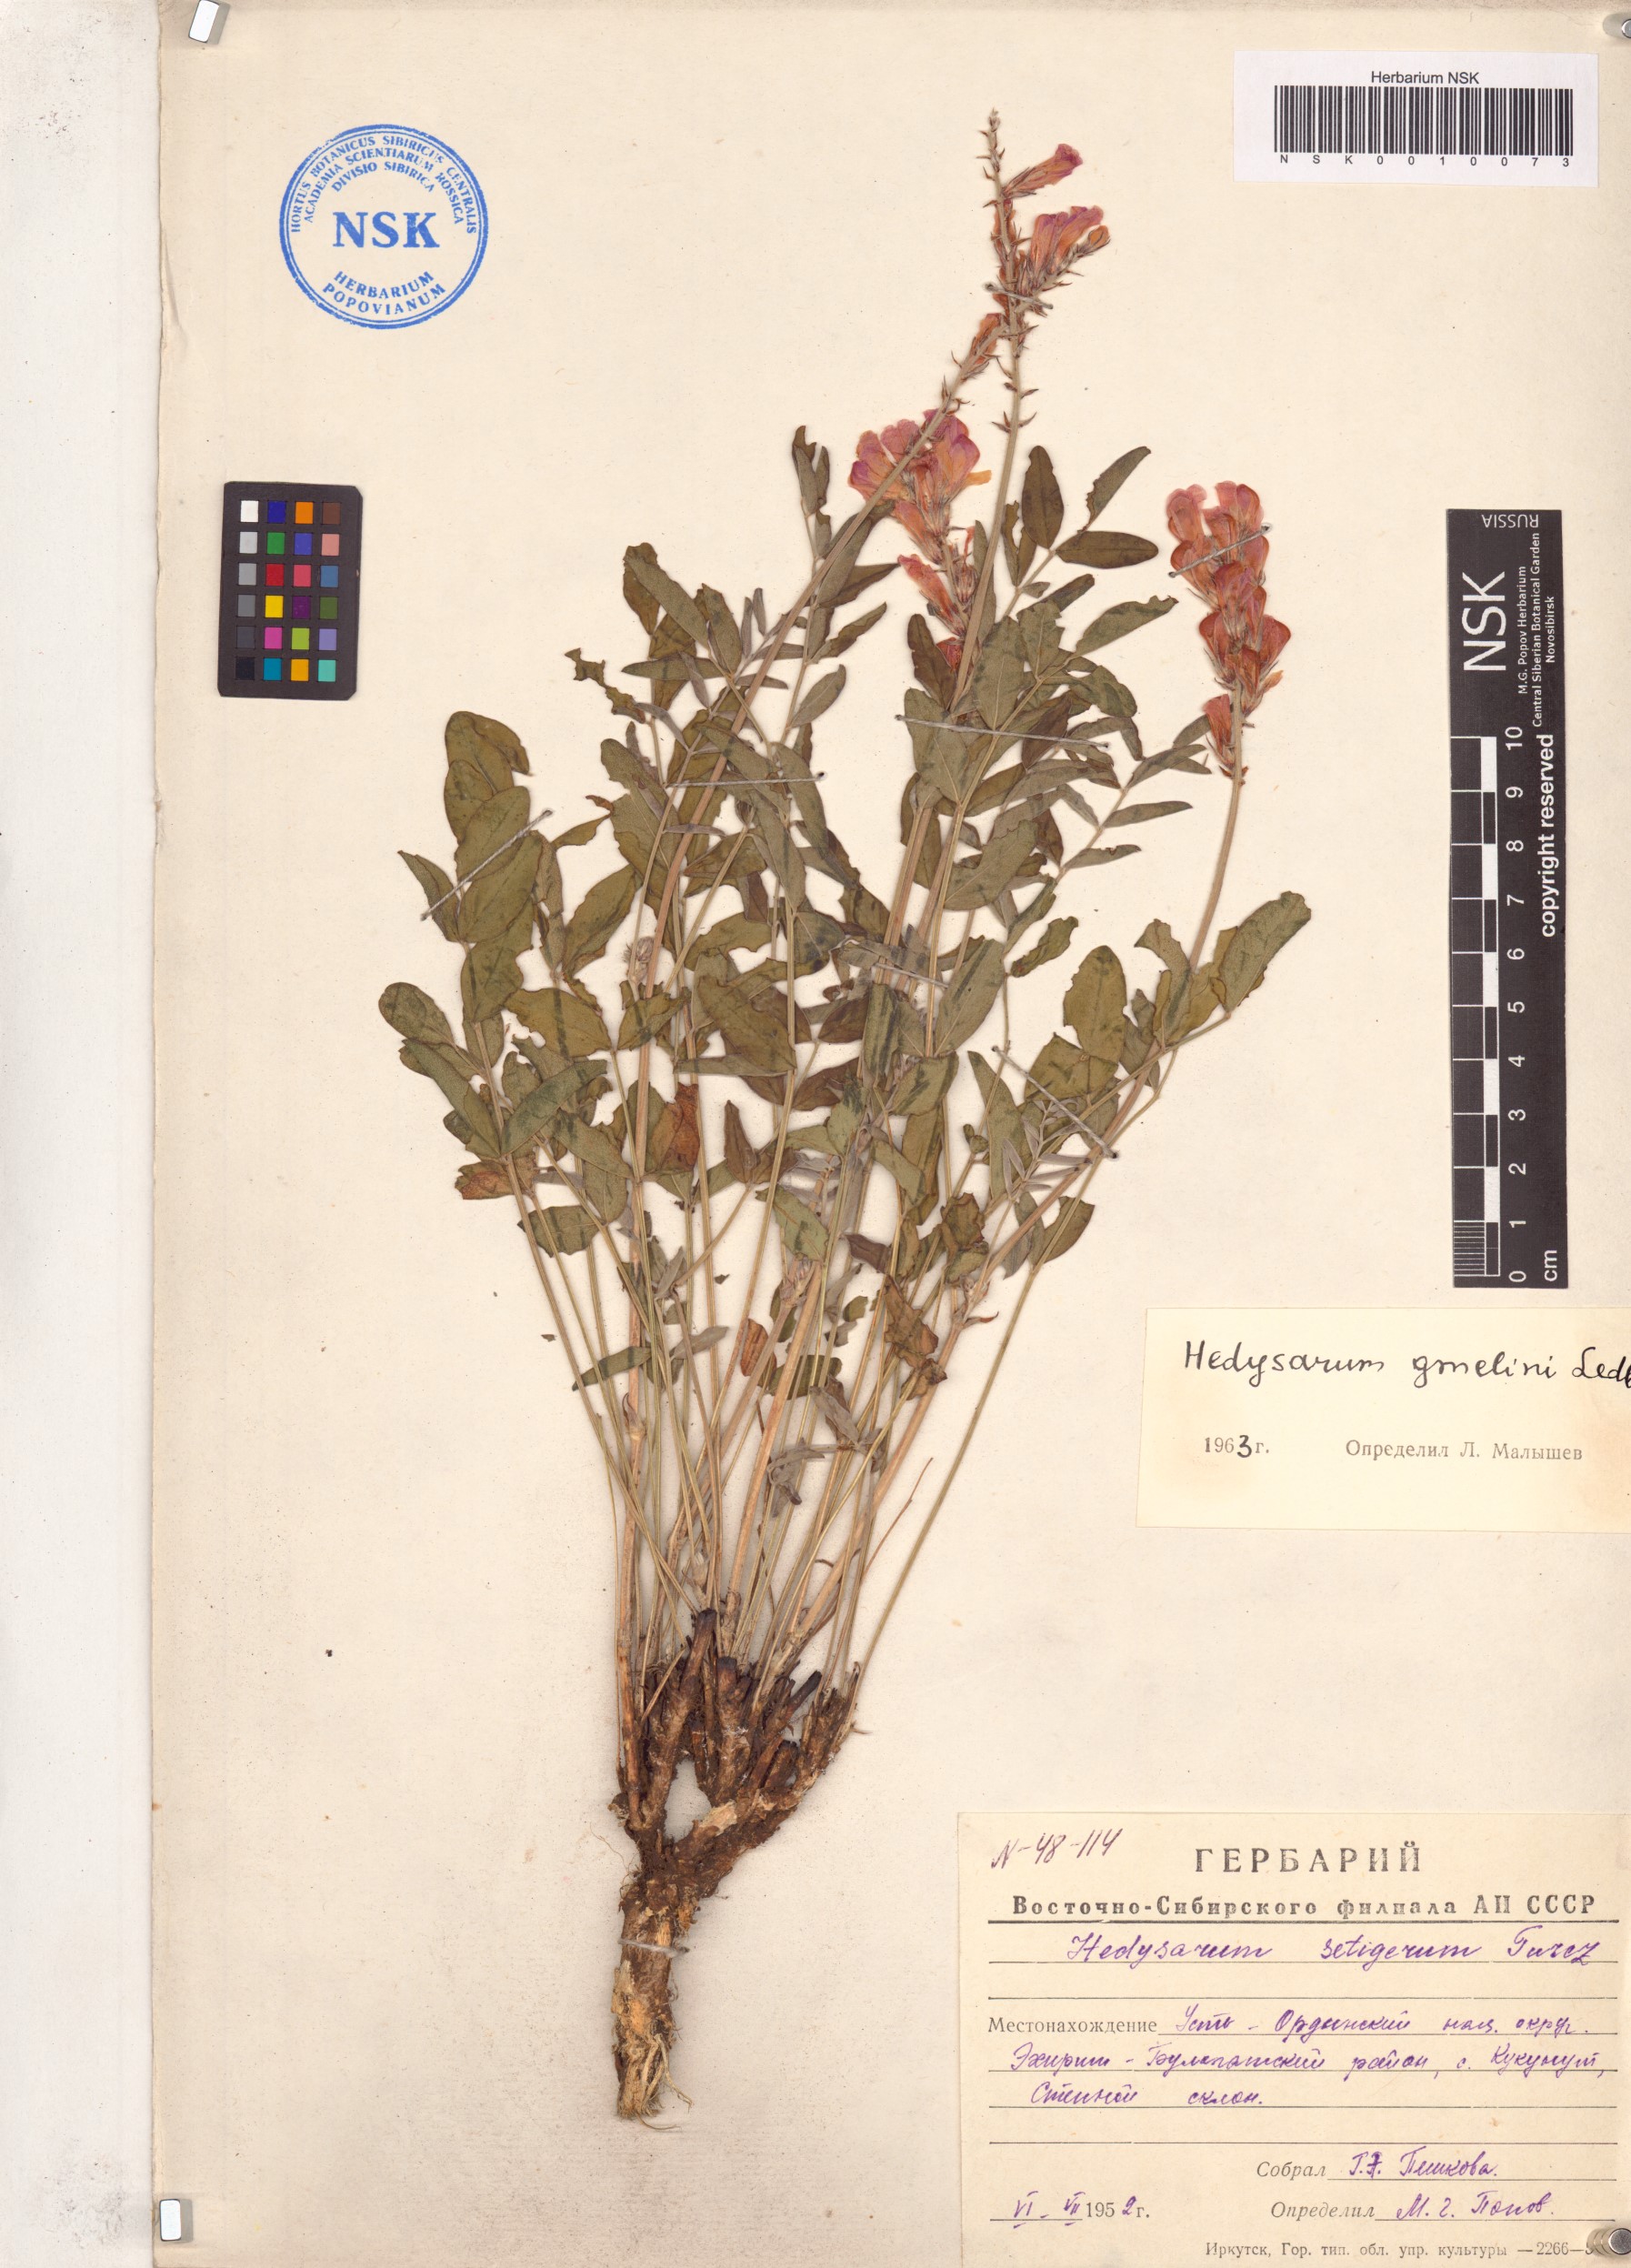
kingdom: Plantae
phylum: Tracheophyta
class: Magnoliopsida
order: Fabales
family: Fabaceae
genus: Hedysarum
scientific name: Hedysarum gmelinii
